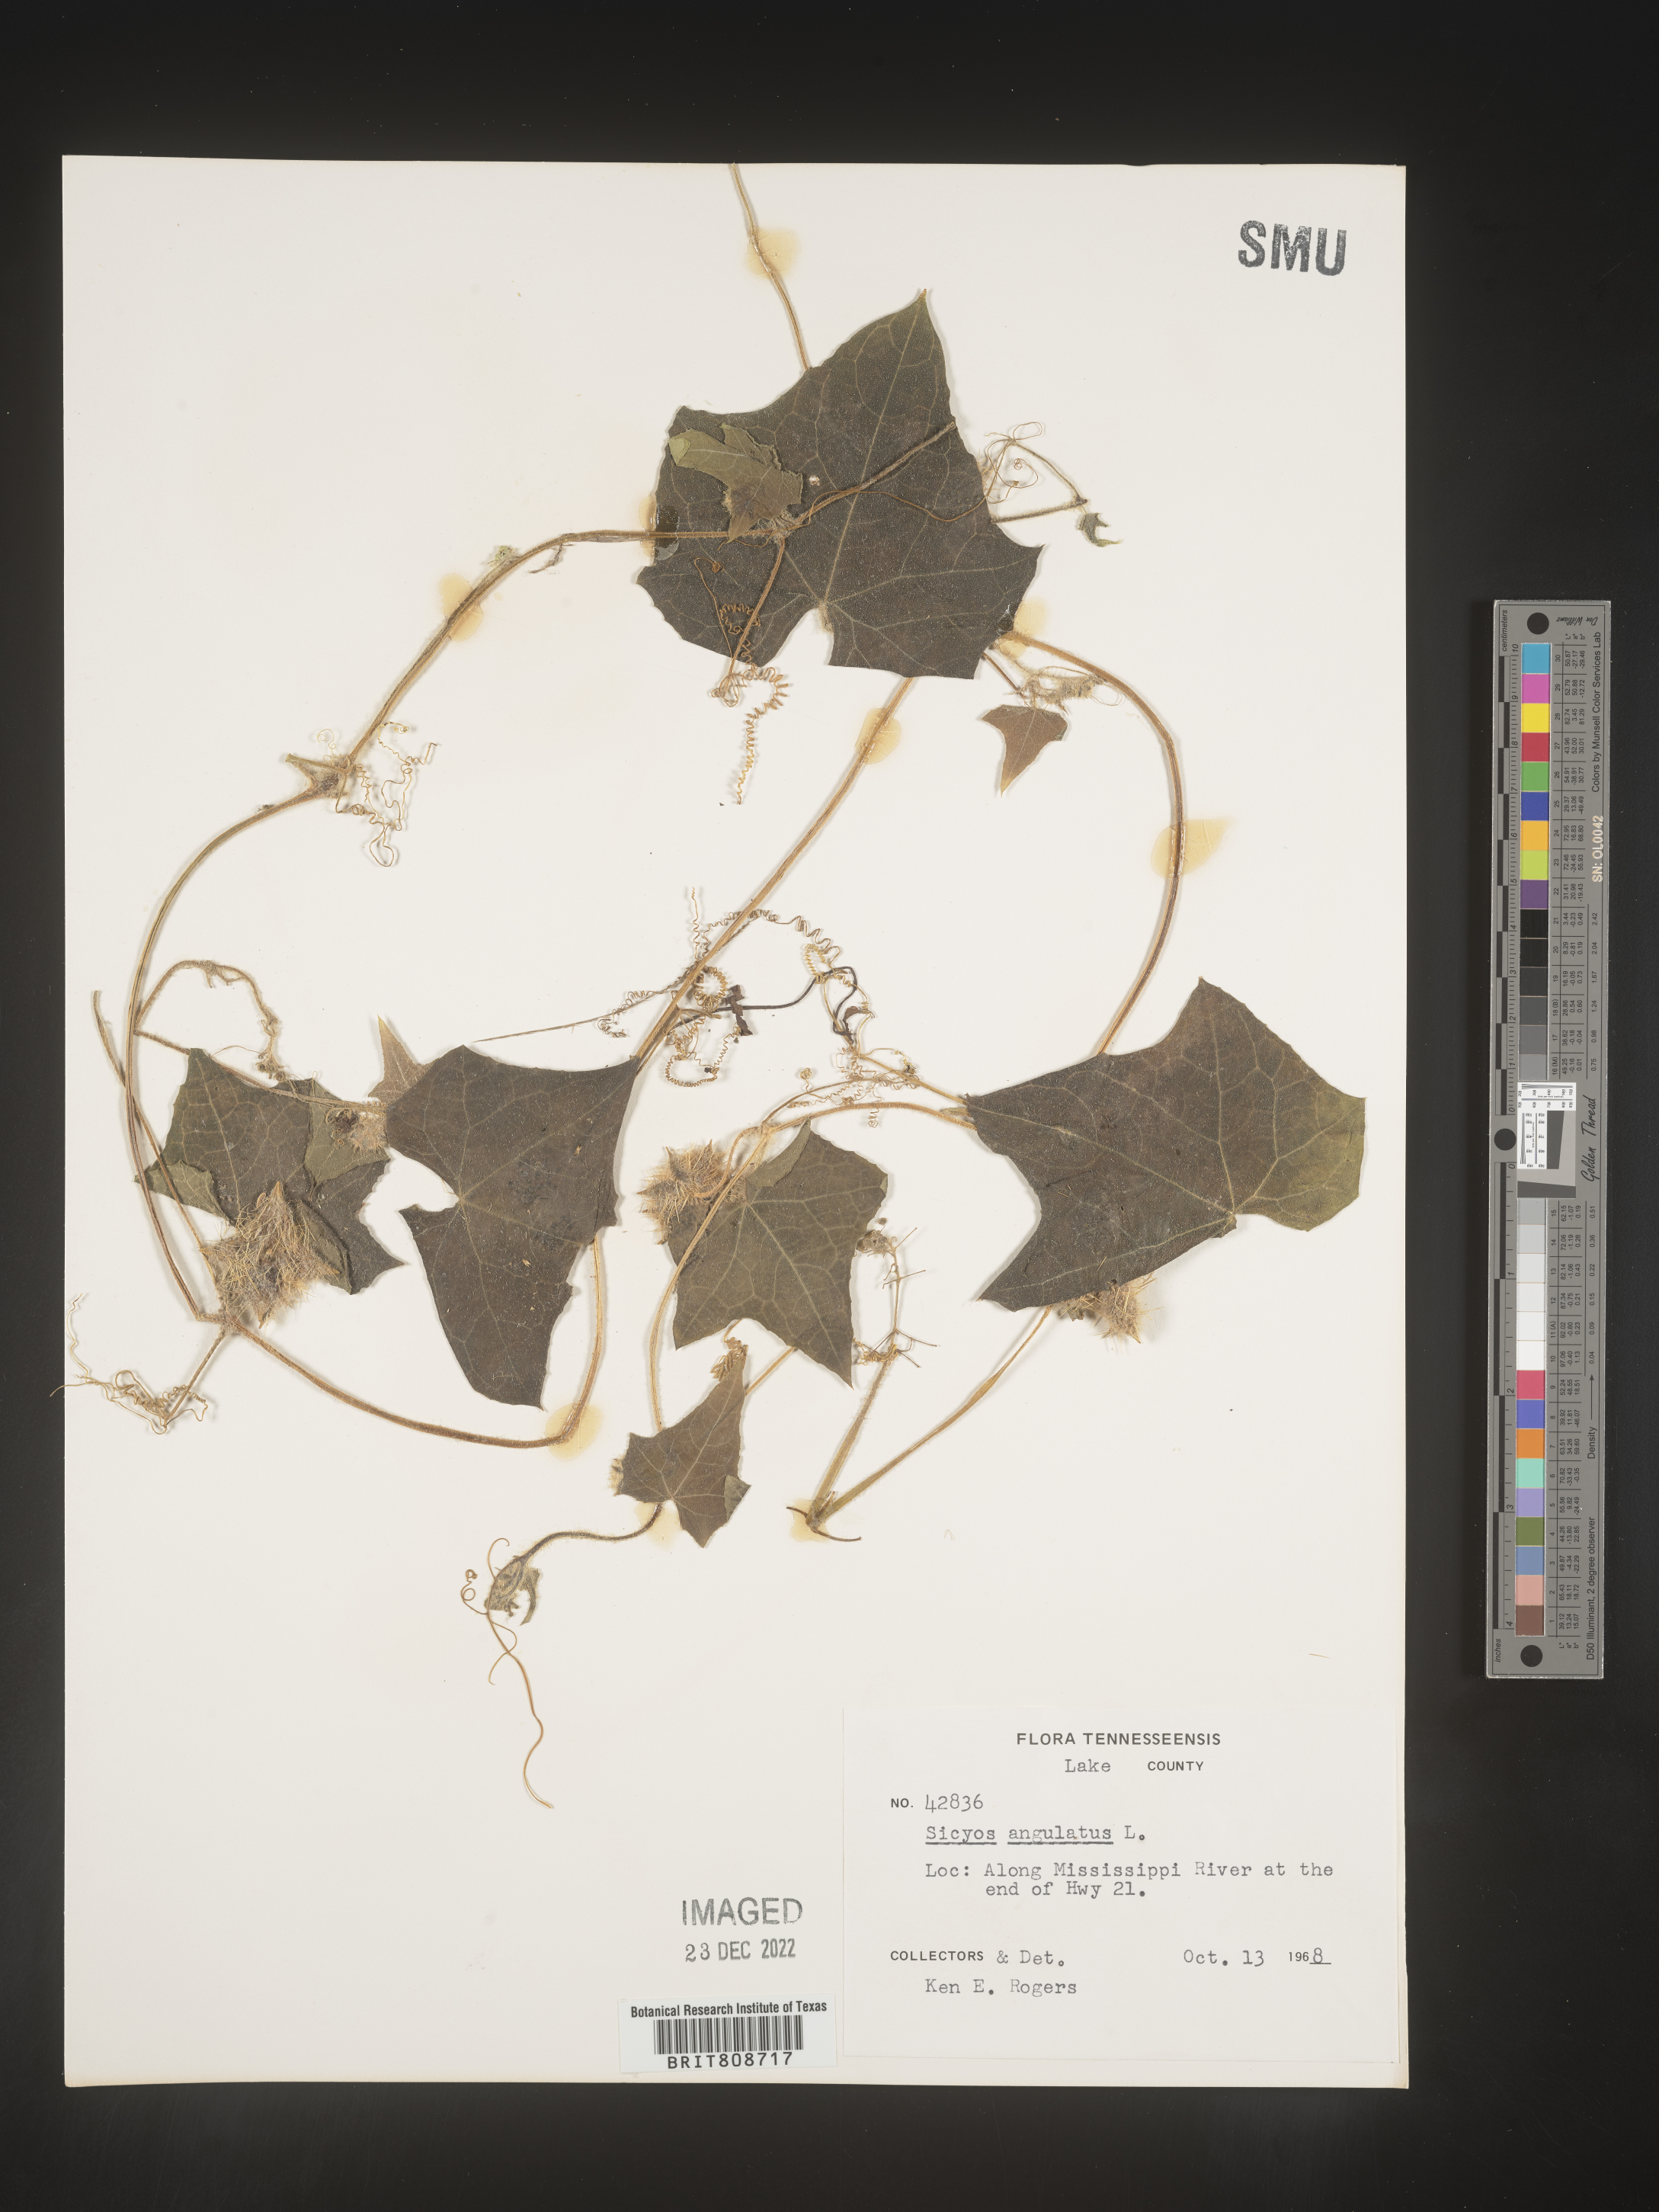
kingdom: Plantae
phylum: Tracheophyta
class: Magnoliopsida
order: Cucurbitales
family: Cucurbitaceae
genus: Sicyos
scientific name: Sicyos angulatus
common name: Angled burr cucumber
